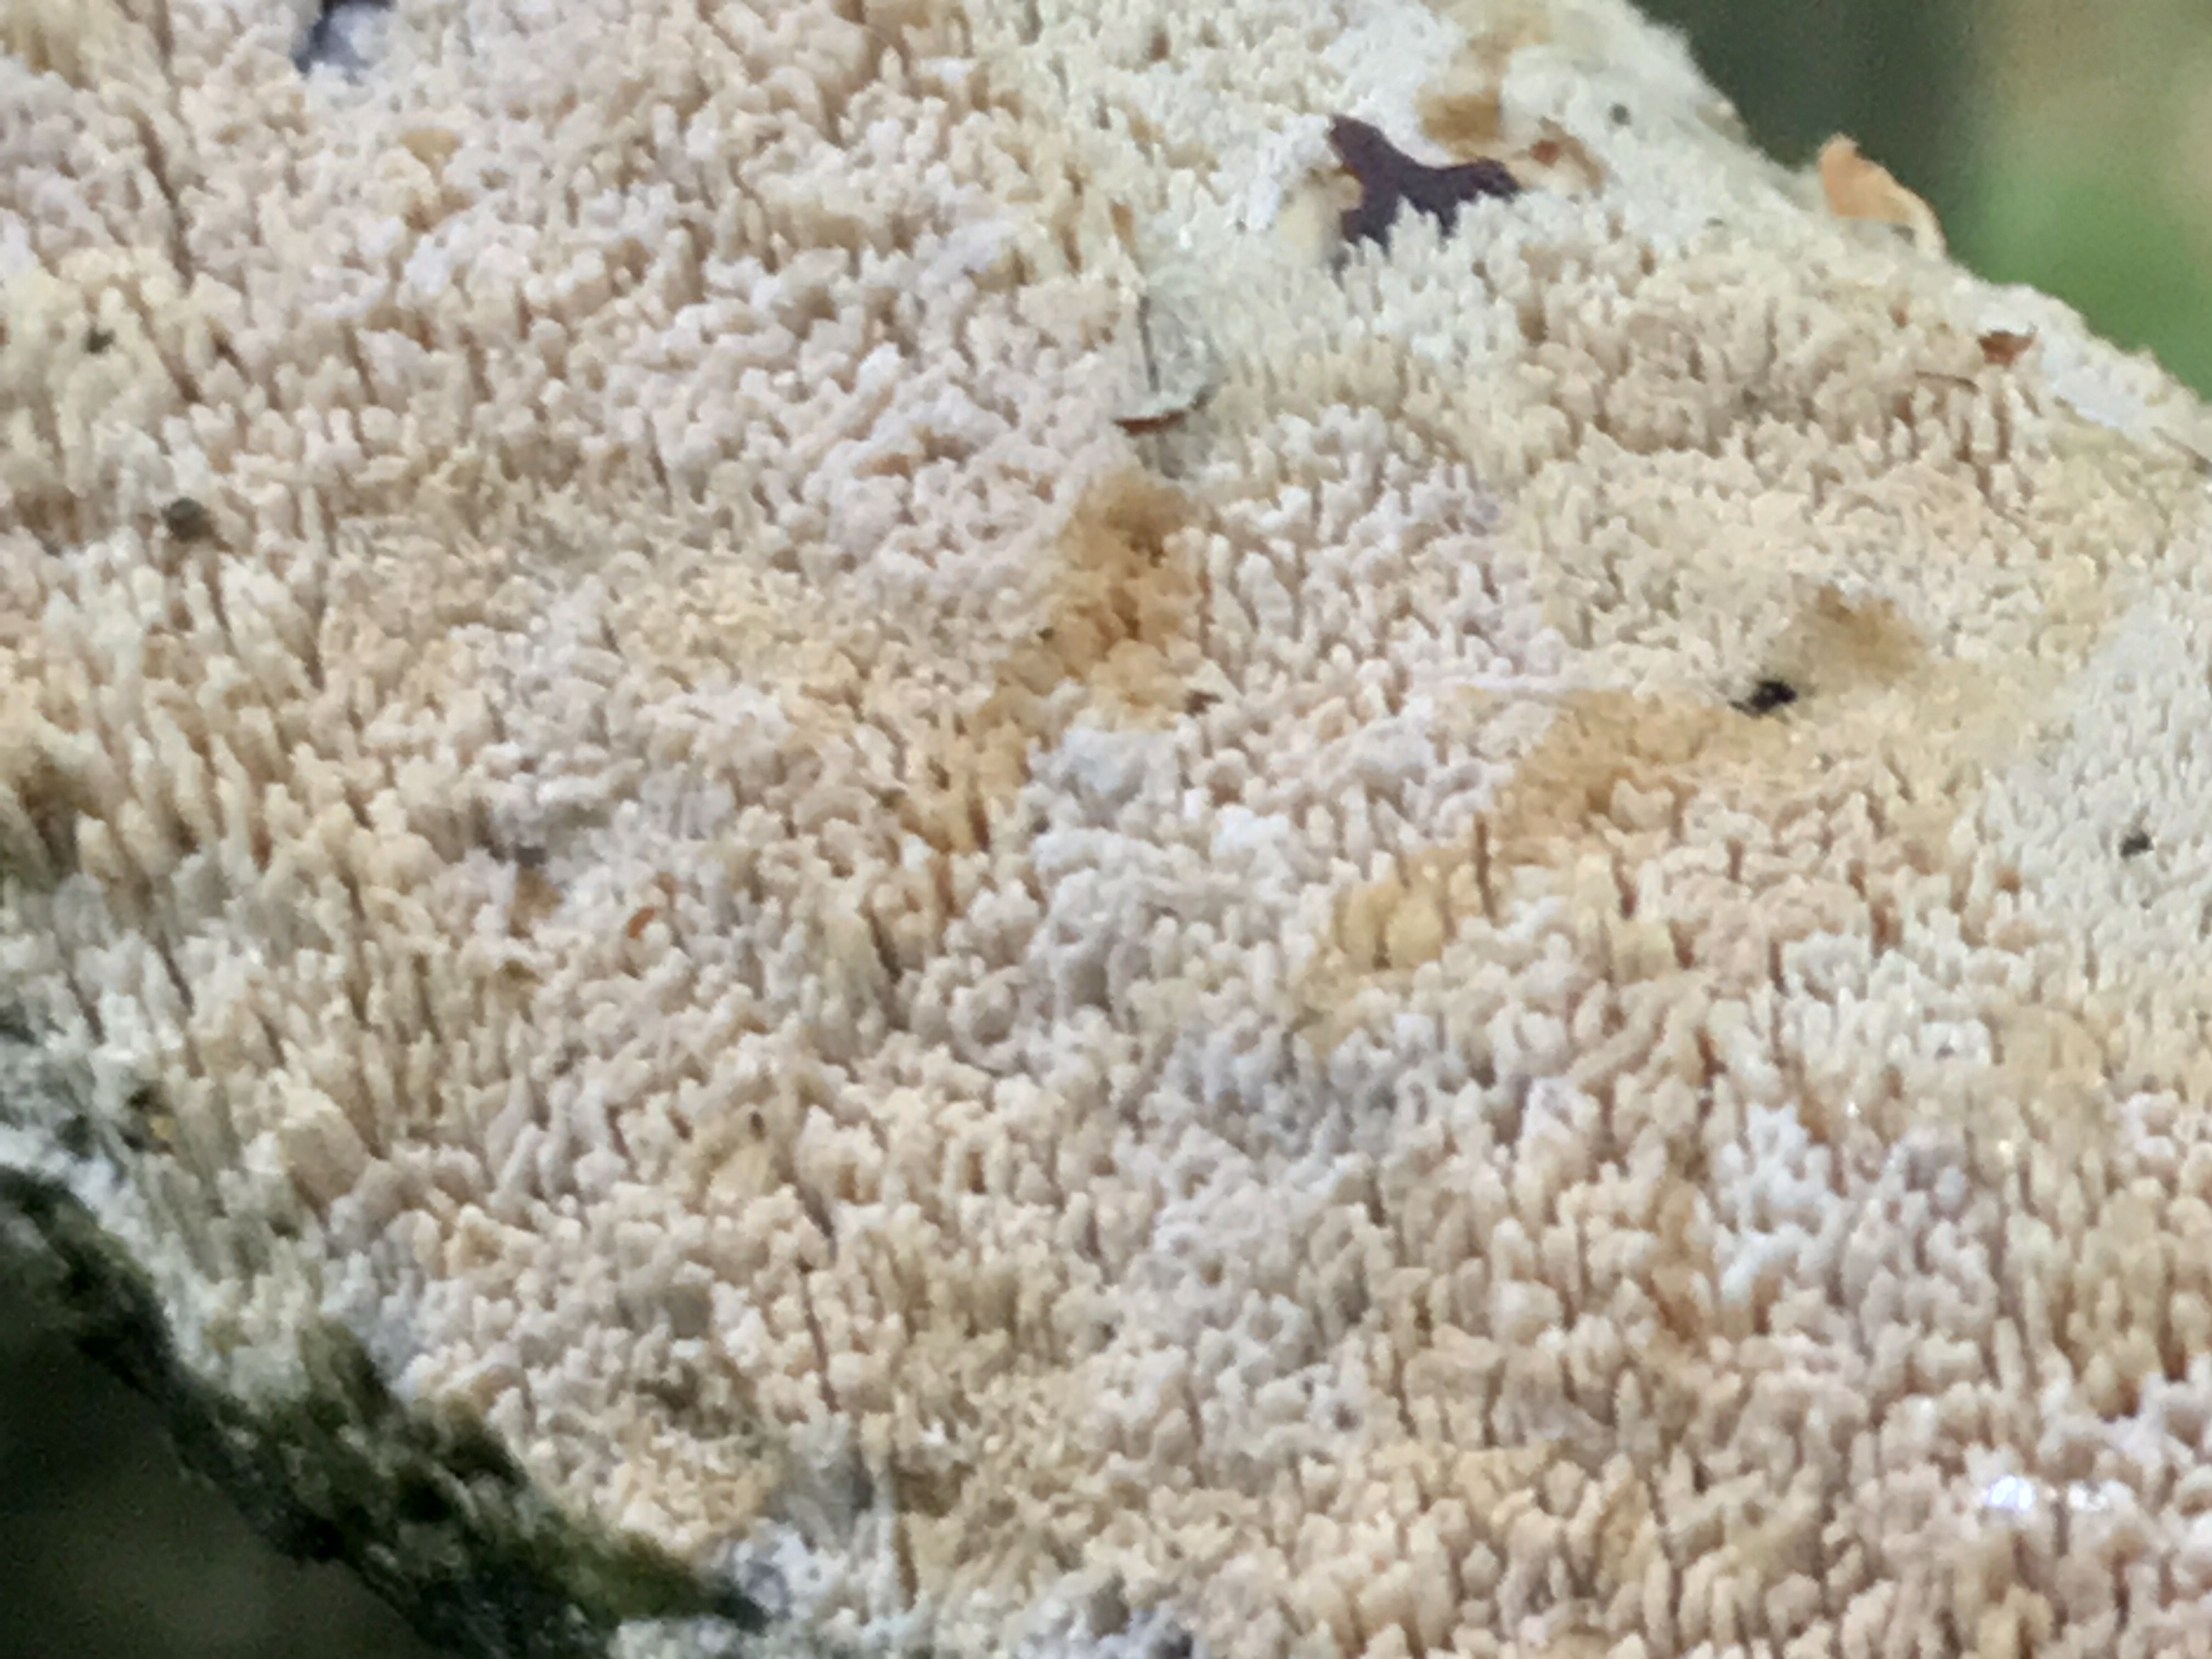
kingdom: Fungi
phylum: Basidiomycota
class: Agaricomycetes
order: Hymenochaetales
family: Schizoporaceae
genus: Schizopora
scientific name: Schizopora paradoxa
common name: hvid tandsvamp
